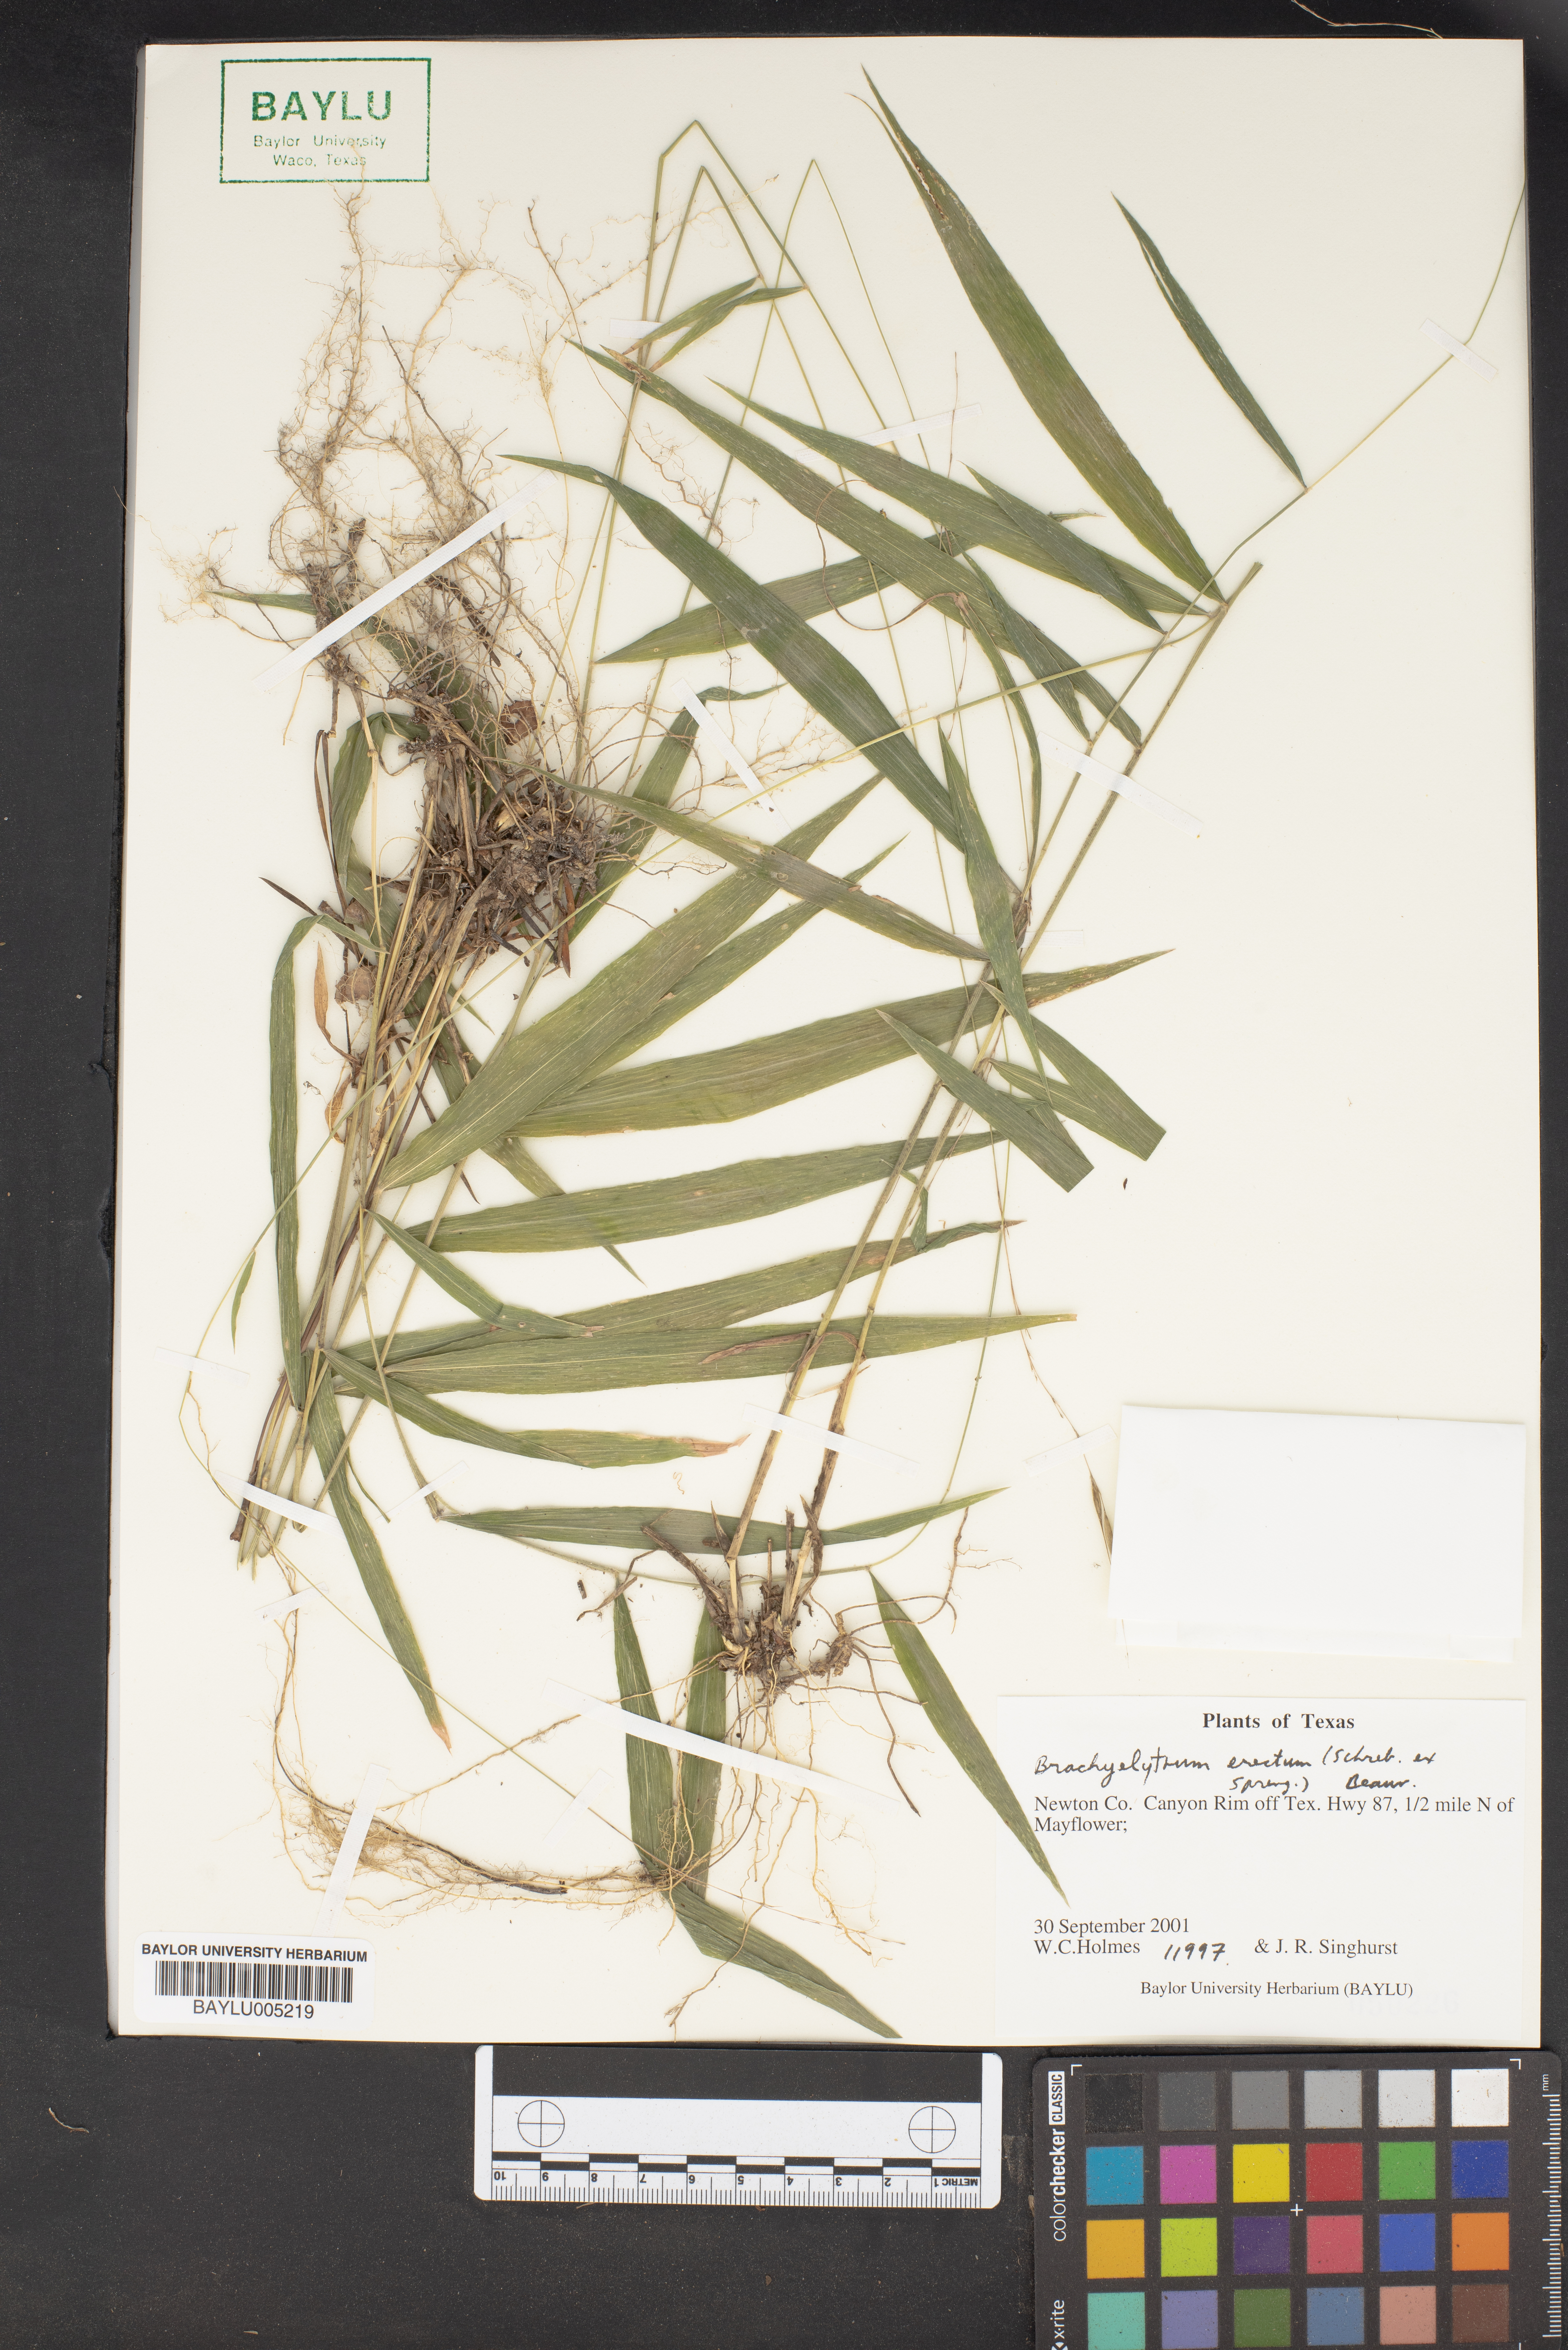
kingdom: Plantae
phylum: Tracheophyta
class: Liliopsida
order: Poales
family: Poaceae
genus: Brachyelytrum
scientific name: Brachyelytrum erectum
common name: Bearded shorthusk
